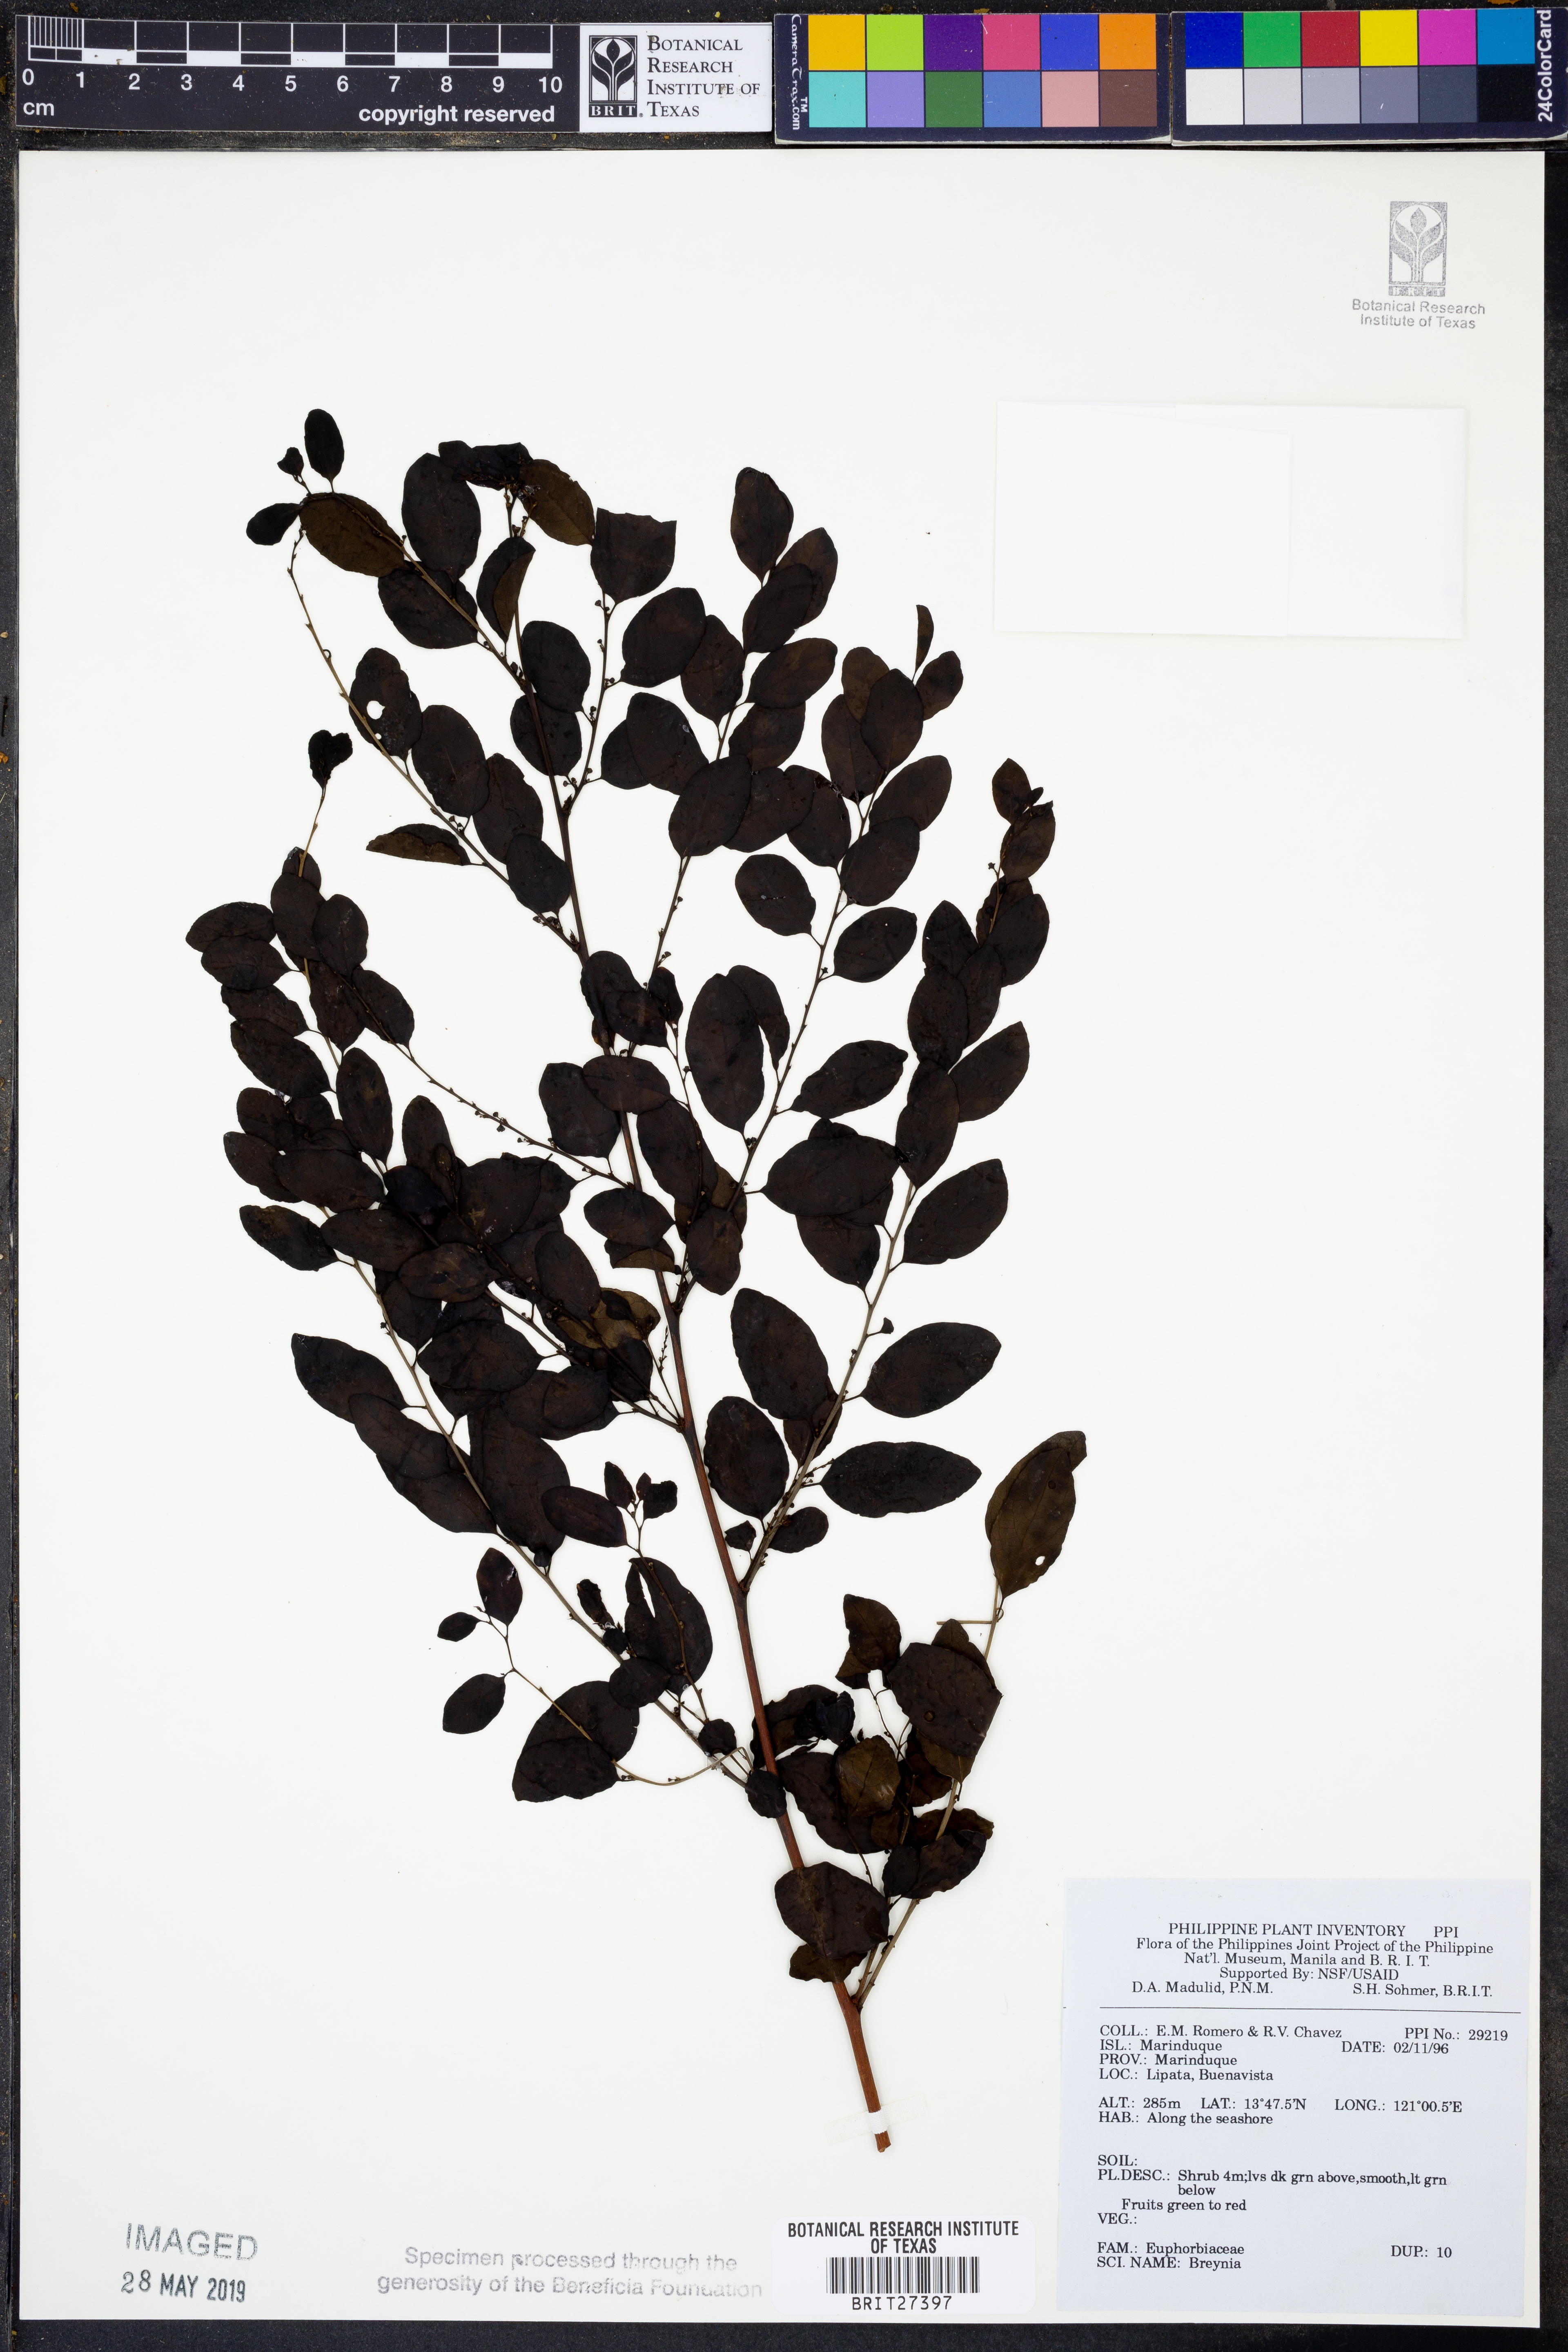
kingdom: Plantae
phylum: Tracheophyta
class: Magnoliopsida
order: Malpighiales
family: Phyllanthaceae
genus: Breynia
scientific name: Breynia
